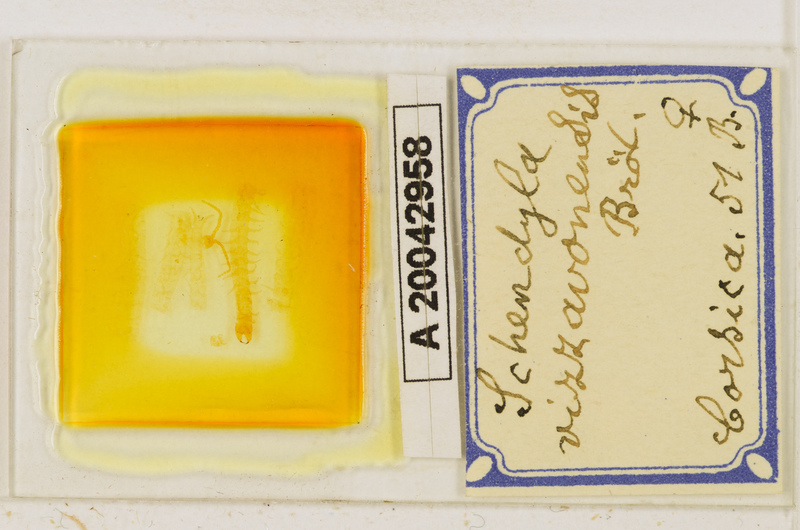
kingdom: Animalia
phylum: Arthropoda
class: Chilopoda
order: Geophilomorpha
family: Schendylidae
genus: Schendyla
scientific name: Schendyla vizzavonae
